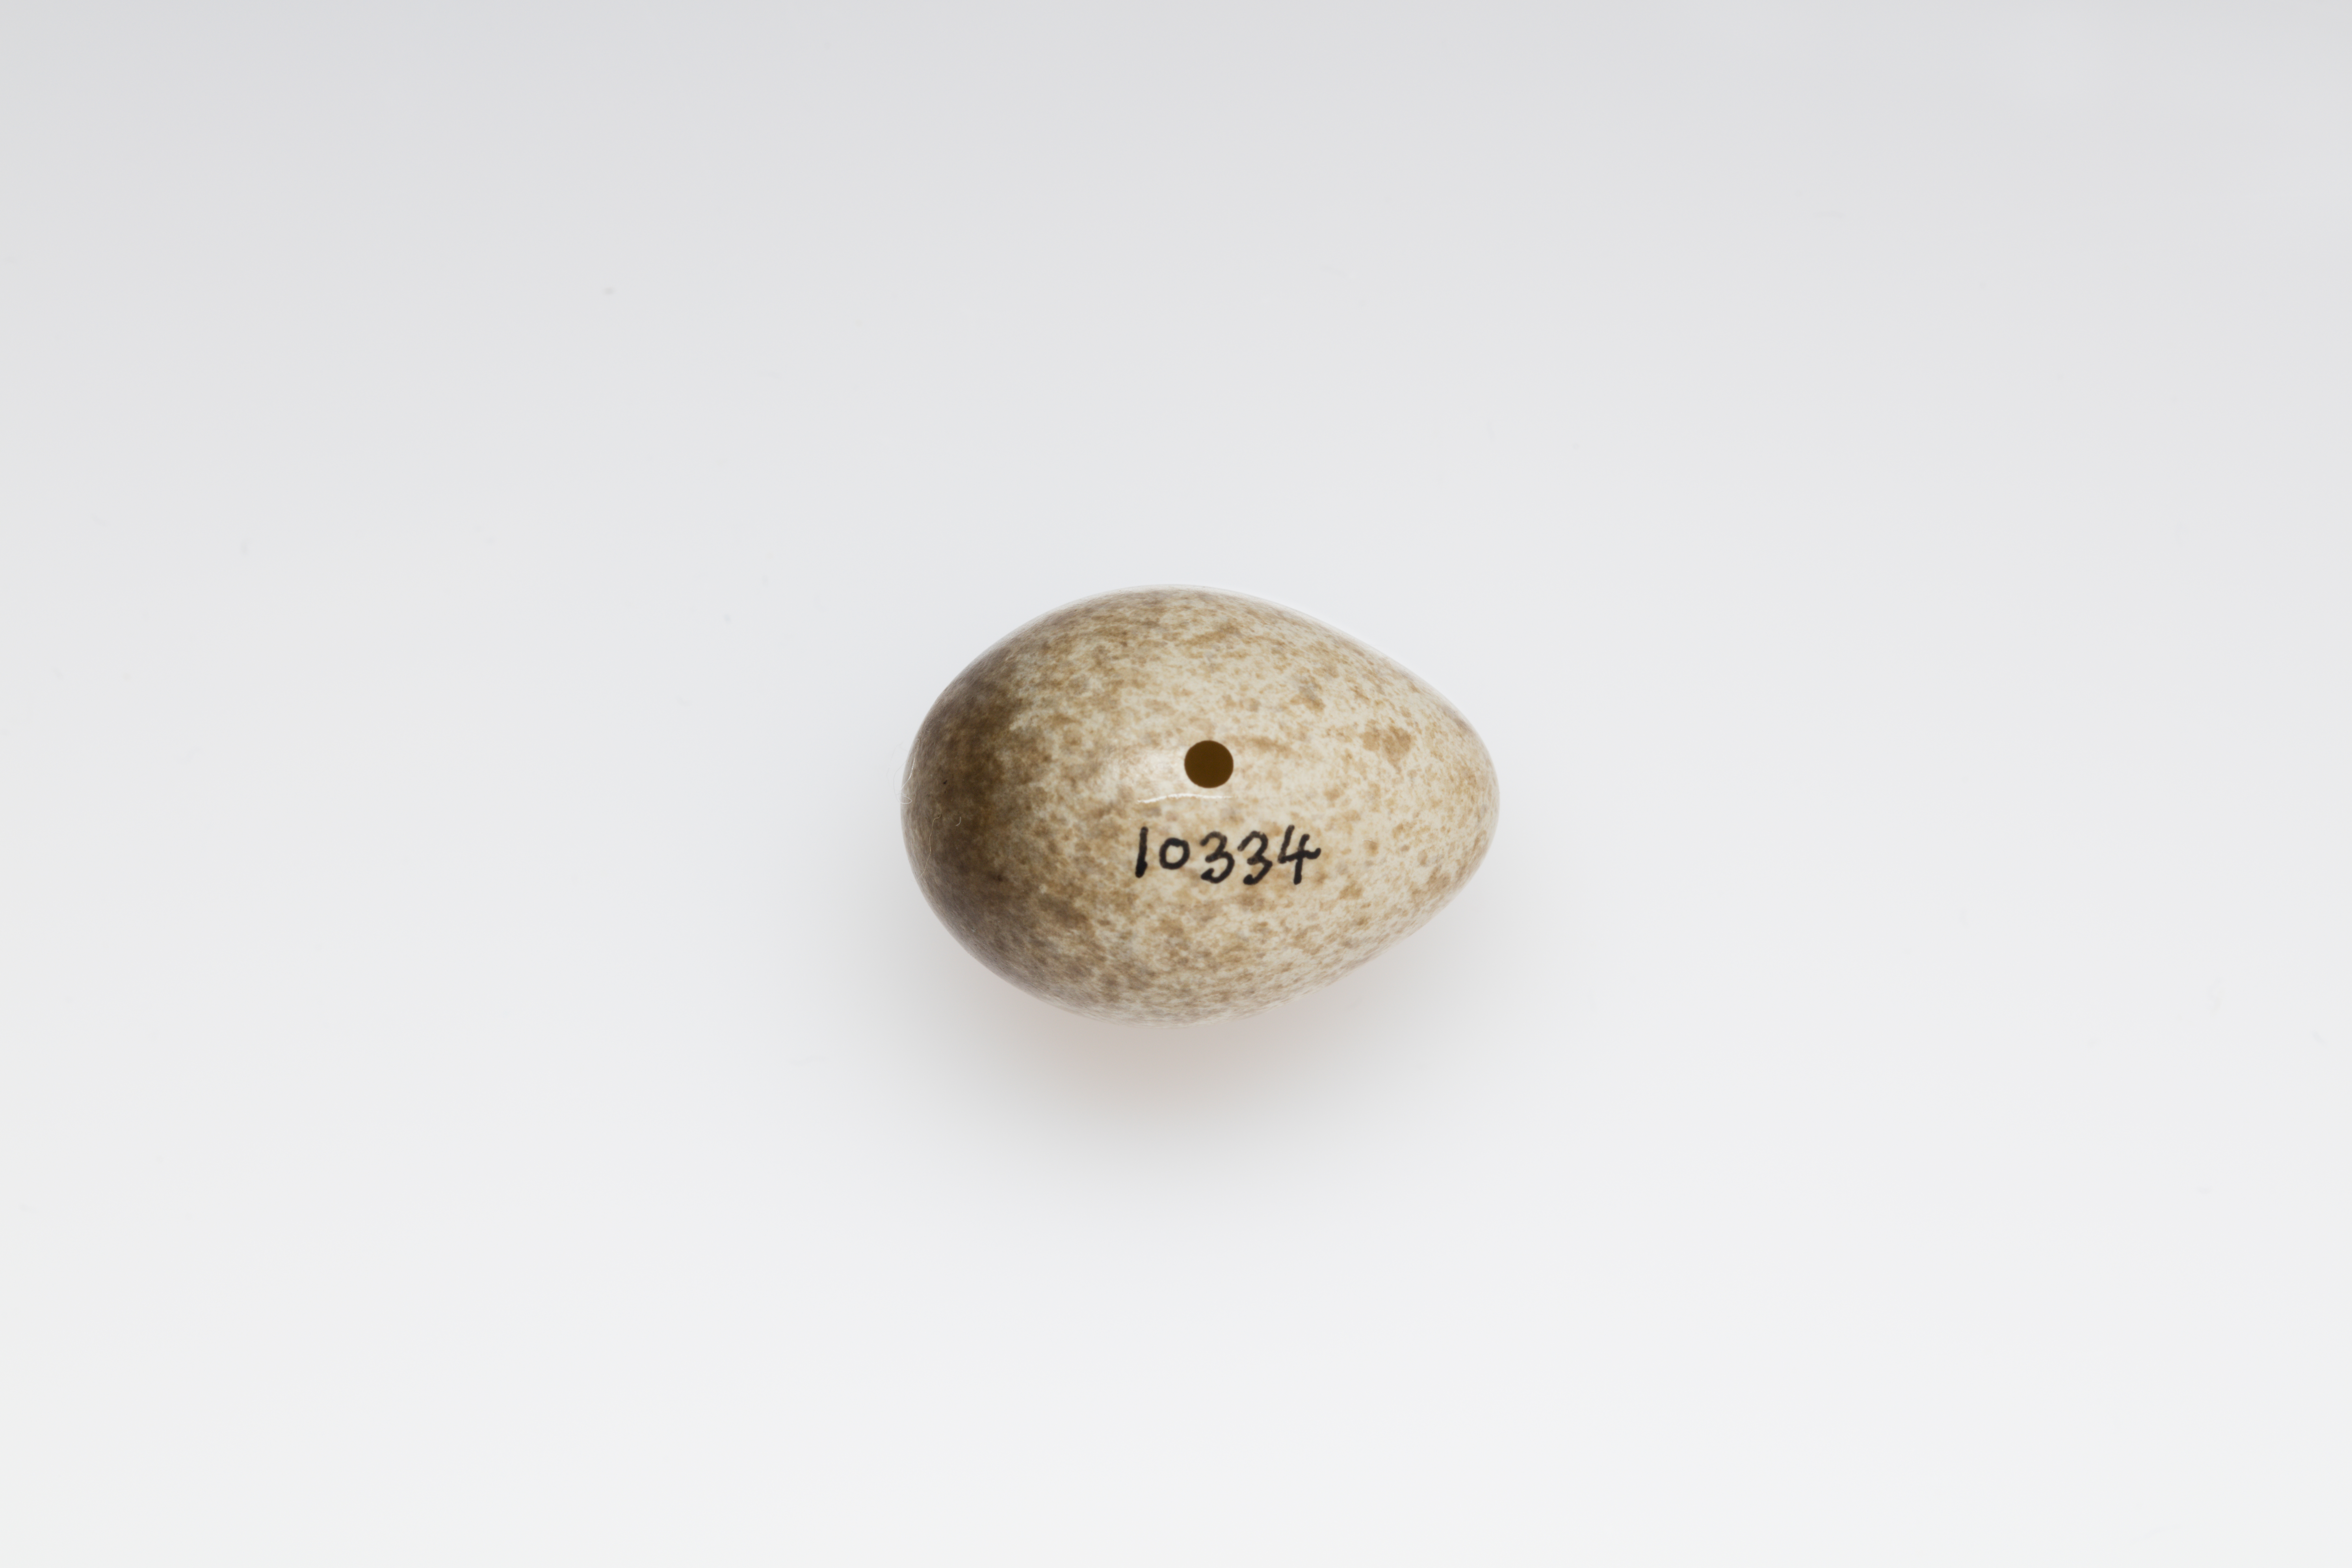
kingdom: Animalia
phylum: Chordata
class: Aves
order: Passeriformes
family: Alaudidae
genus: Alauda
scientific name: Alauda arvensis
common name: Eurasian skylark
